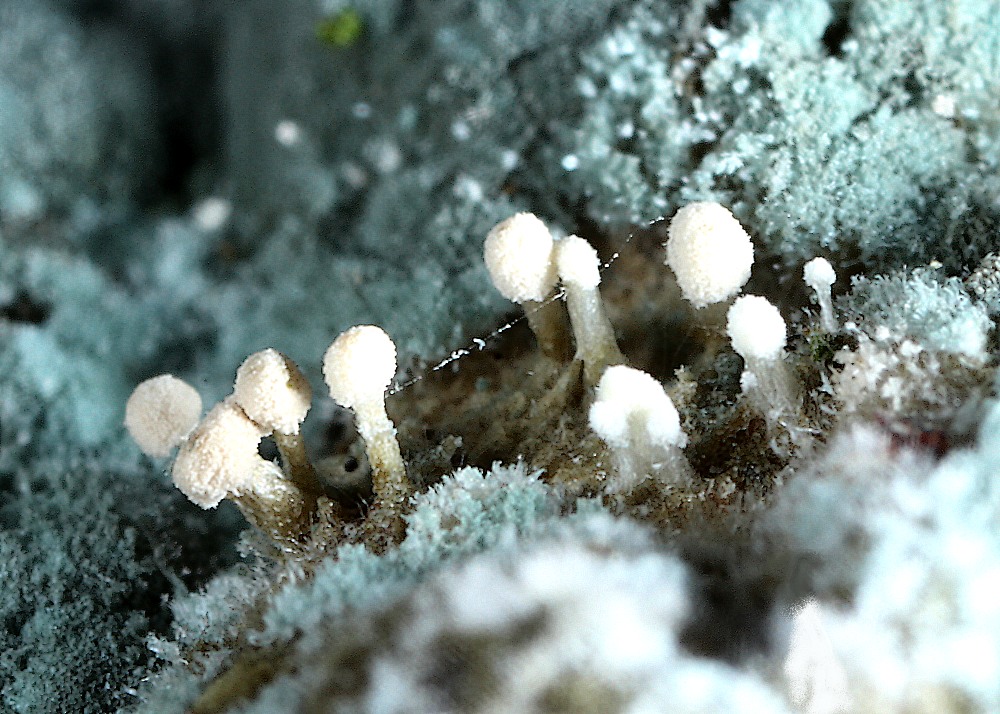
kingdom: Fungi
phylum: Ascomycota
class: Eurotiomycetes
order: Eurotiales
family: Aspergillaceae
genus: Penicillium
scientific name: Penicillium atramentosum
